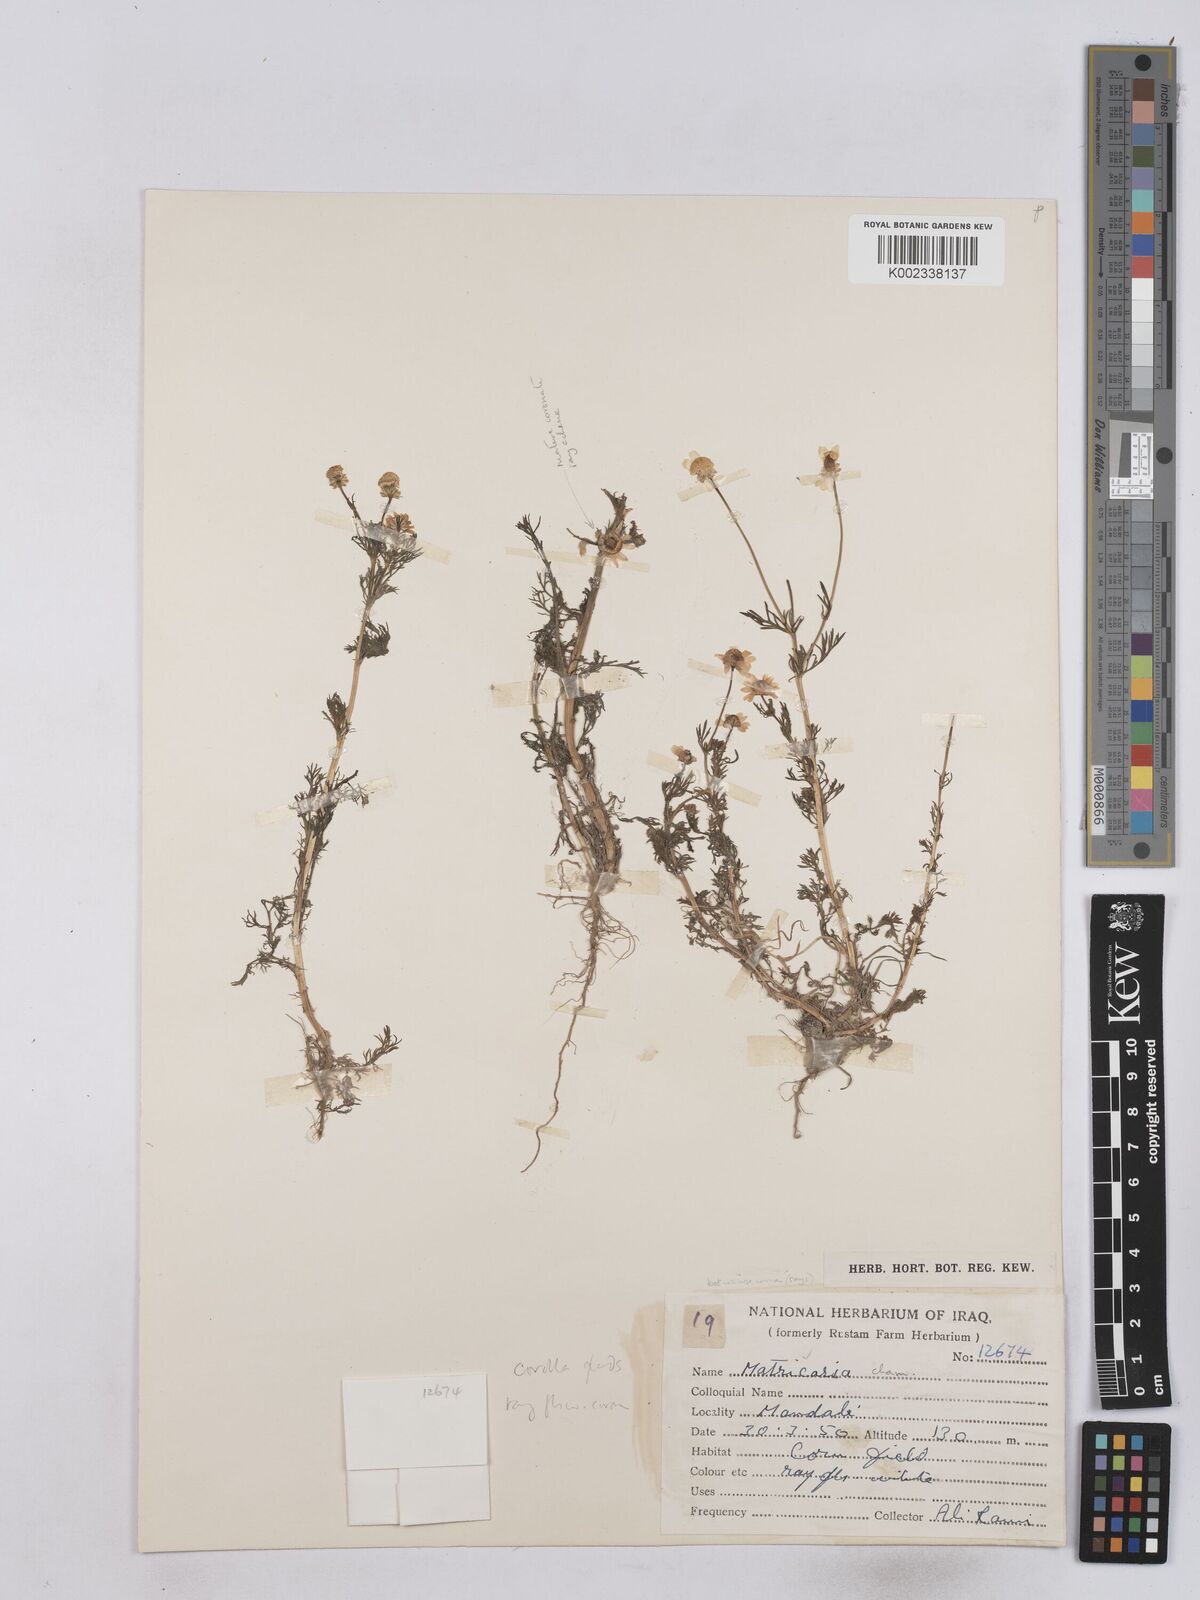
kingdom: Plantae
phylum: Tracheophyta
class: Magnoliopsida
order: Asterales
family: Asteraceae
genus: Matricaria
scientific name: Matricaria chamomilla
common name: Scented mayweed
